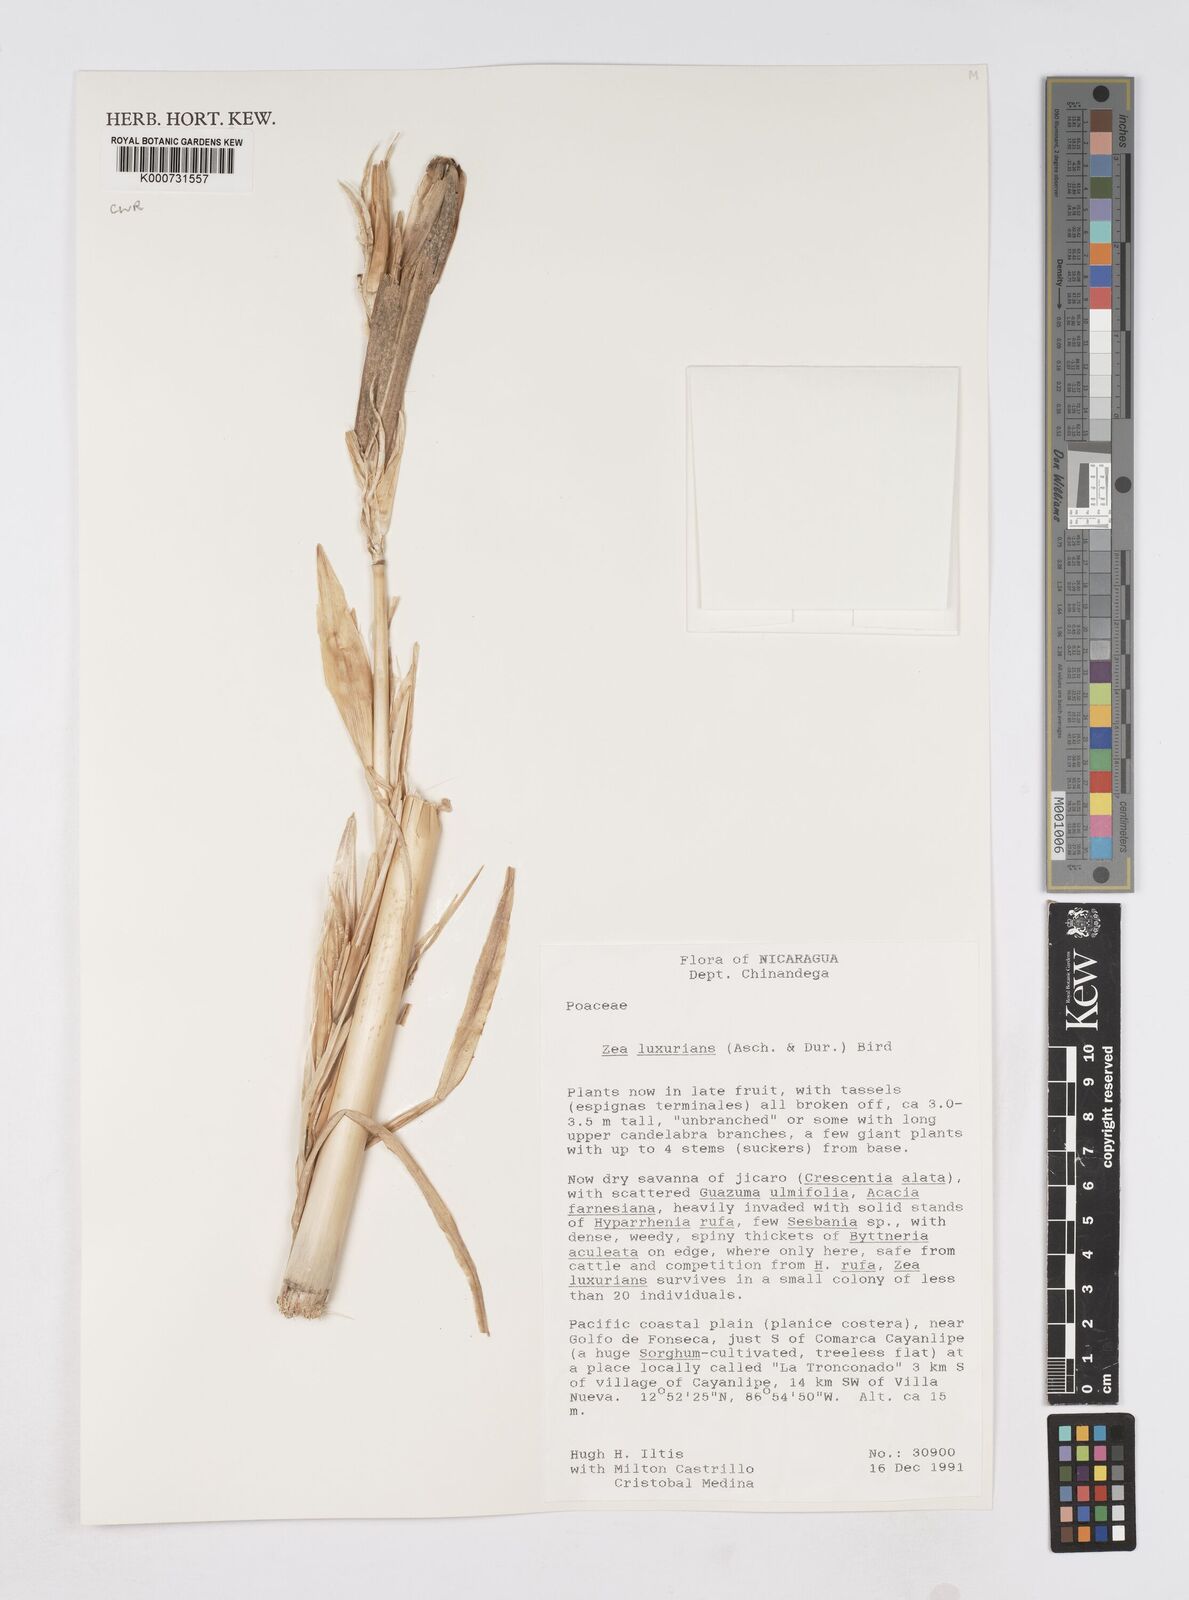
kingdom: Plantae
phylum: Tracheophyta
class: Liliopsida
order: Poales
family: Poaceae
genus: Zea
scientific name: Zea luxurians
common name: Teosinte
